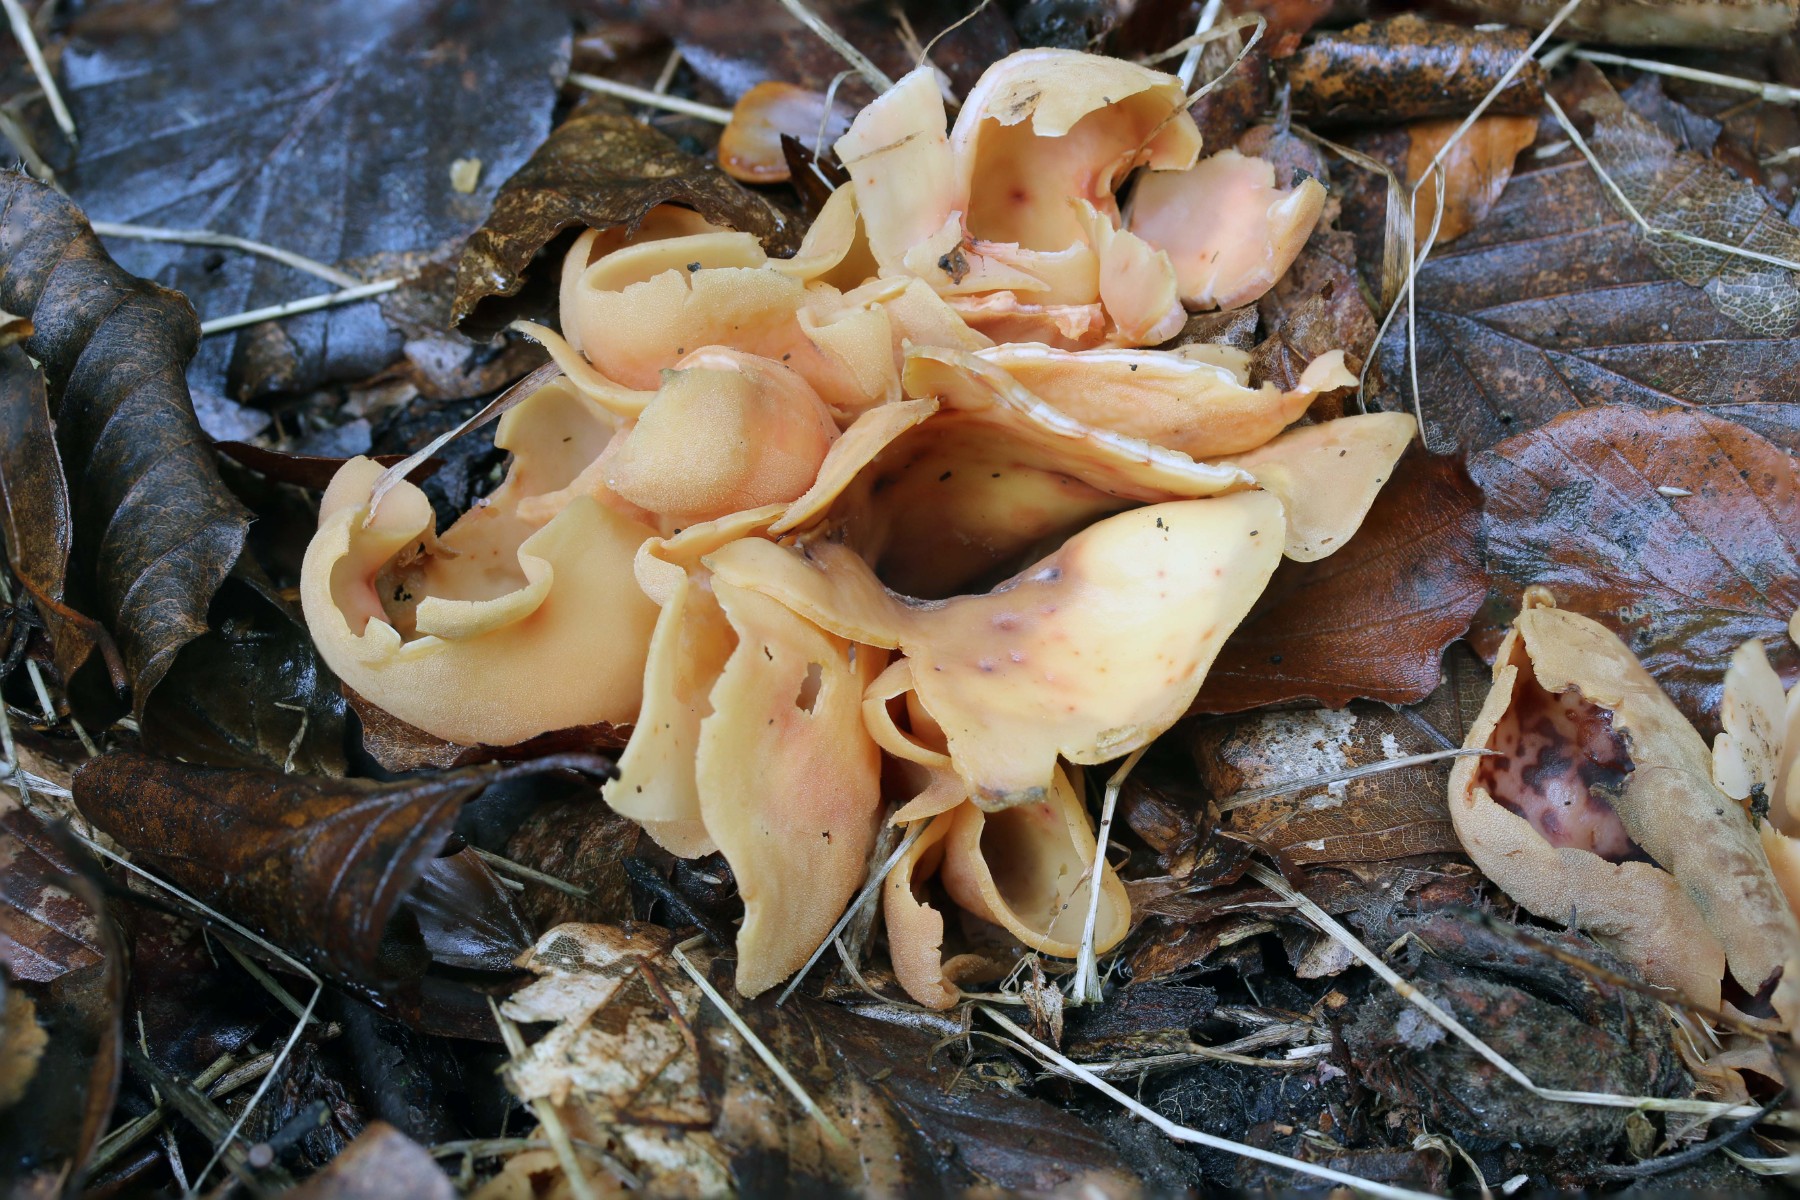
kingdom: Fungi
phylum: Ascomycota
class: Pezizomycetes
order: Pezizales
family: Otideaceae
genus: Otidea
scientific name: Otidea onotica
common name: æsel-ørebæger
